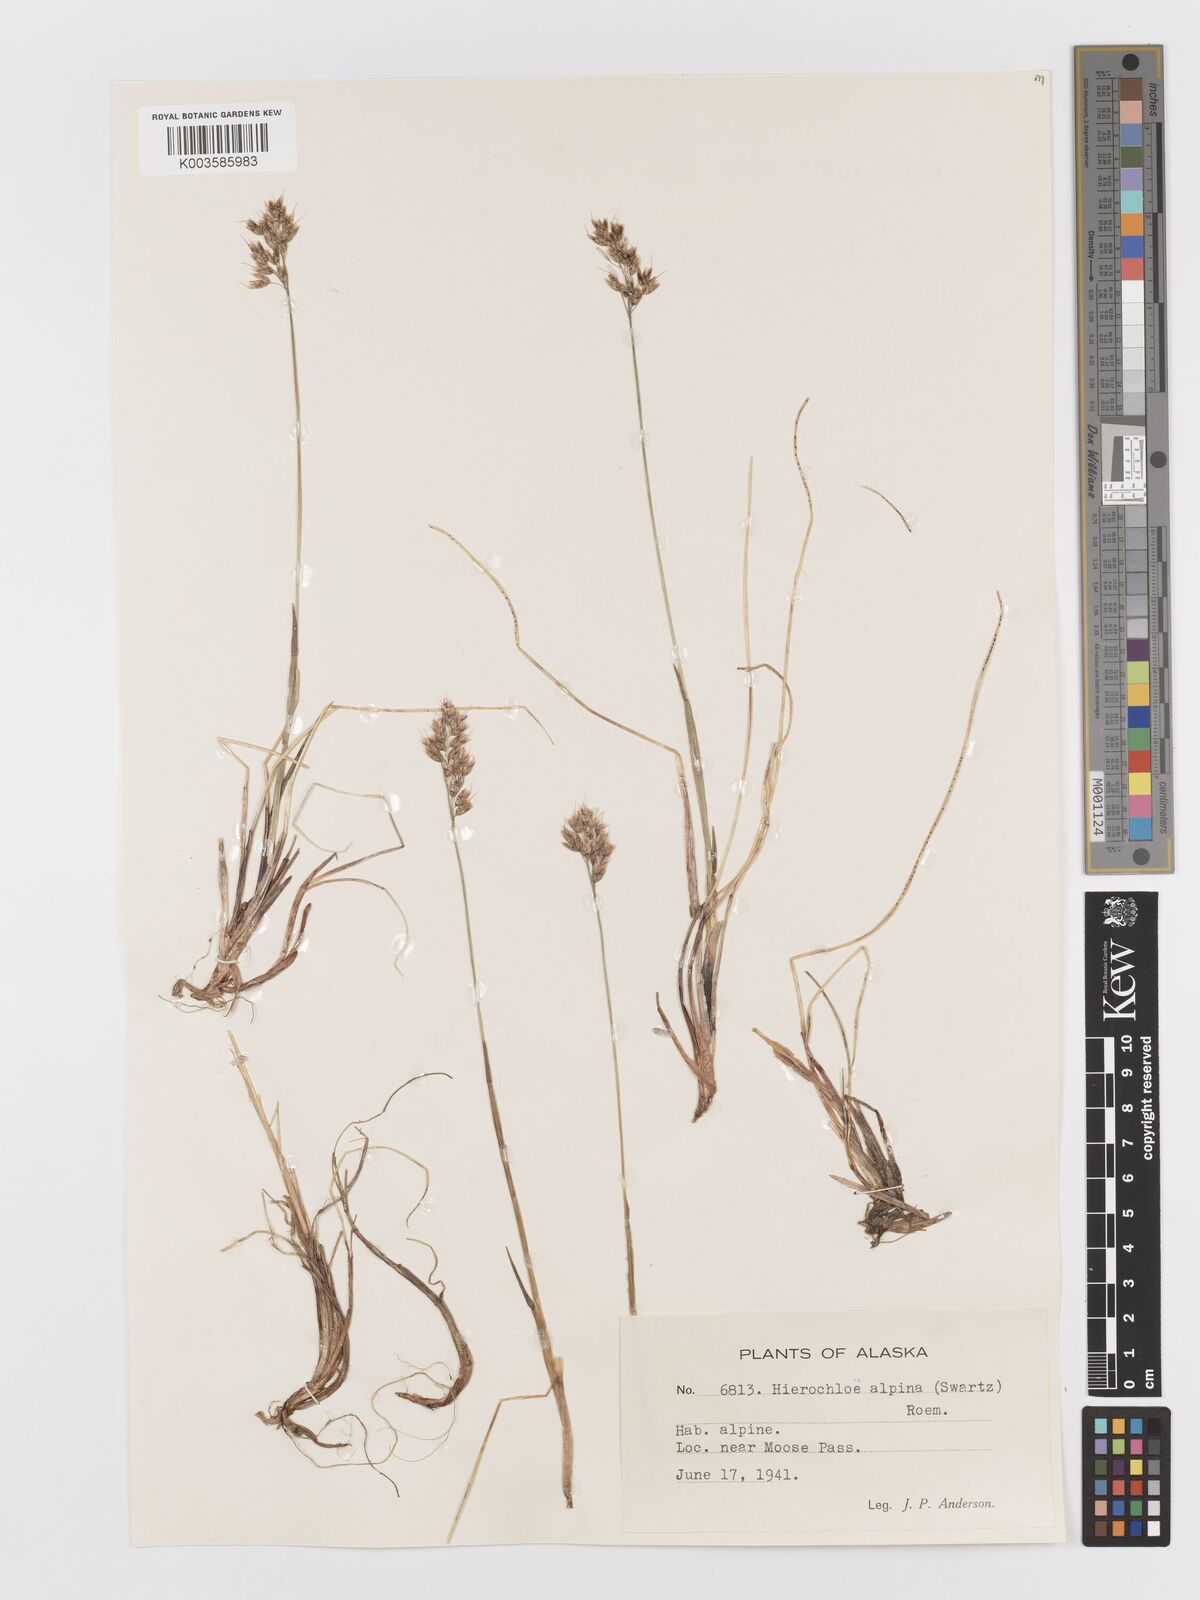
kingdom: Plantae
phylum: Tracheophyta
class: Liliopsida
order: Poales
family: Poaceae
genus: Anthoxanthum
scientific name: Anthoxanthum monticola
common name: Alpine sweetgrass
